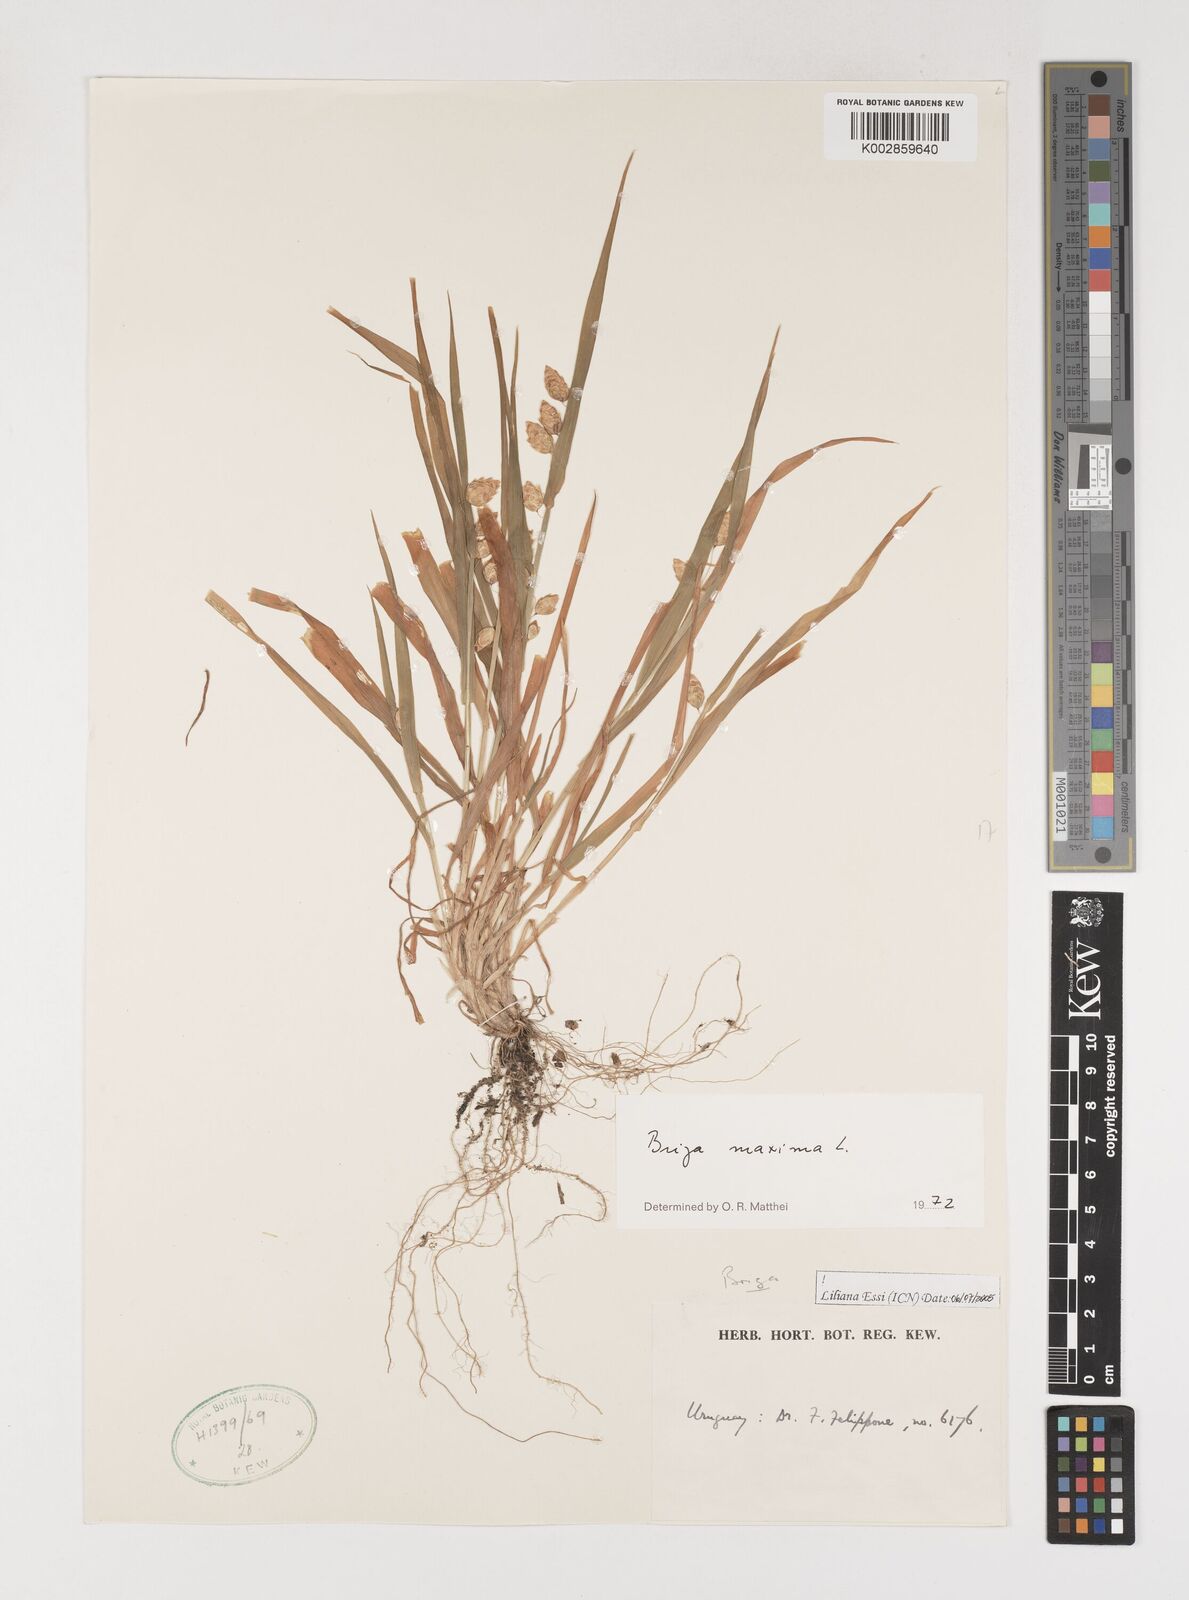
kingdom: Plantae
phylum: Tracheophyta
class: Liliopsida
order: Poales
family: Poaceae
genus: Briza
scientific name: Briza maxima
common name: Big quakinggrass
